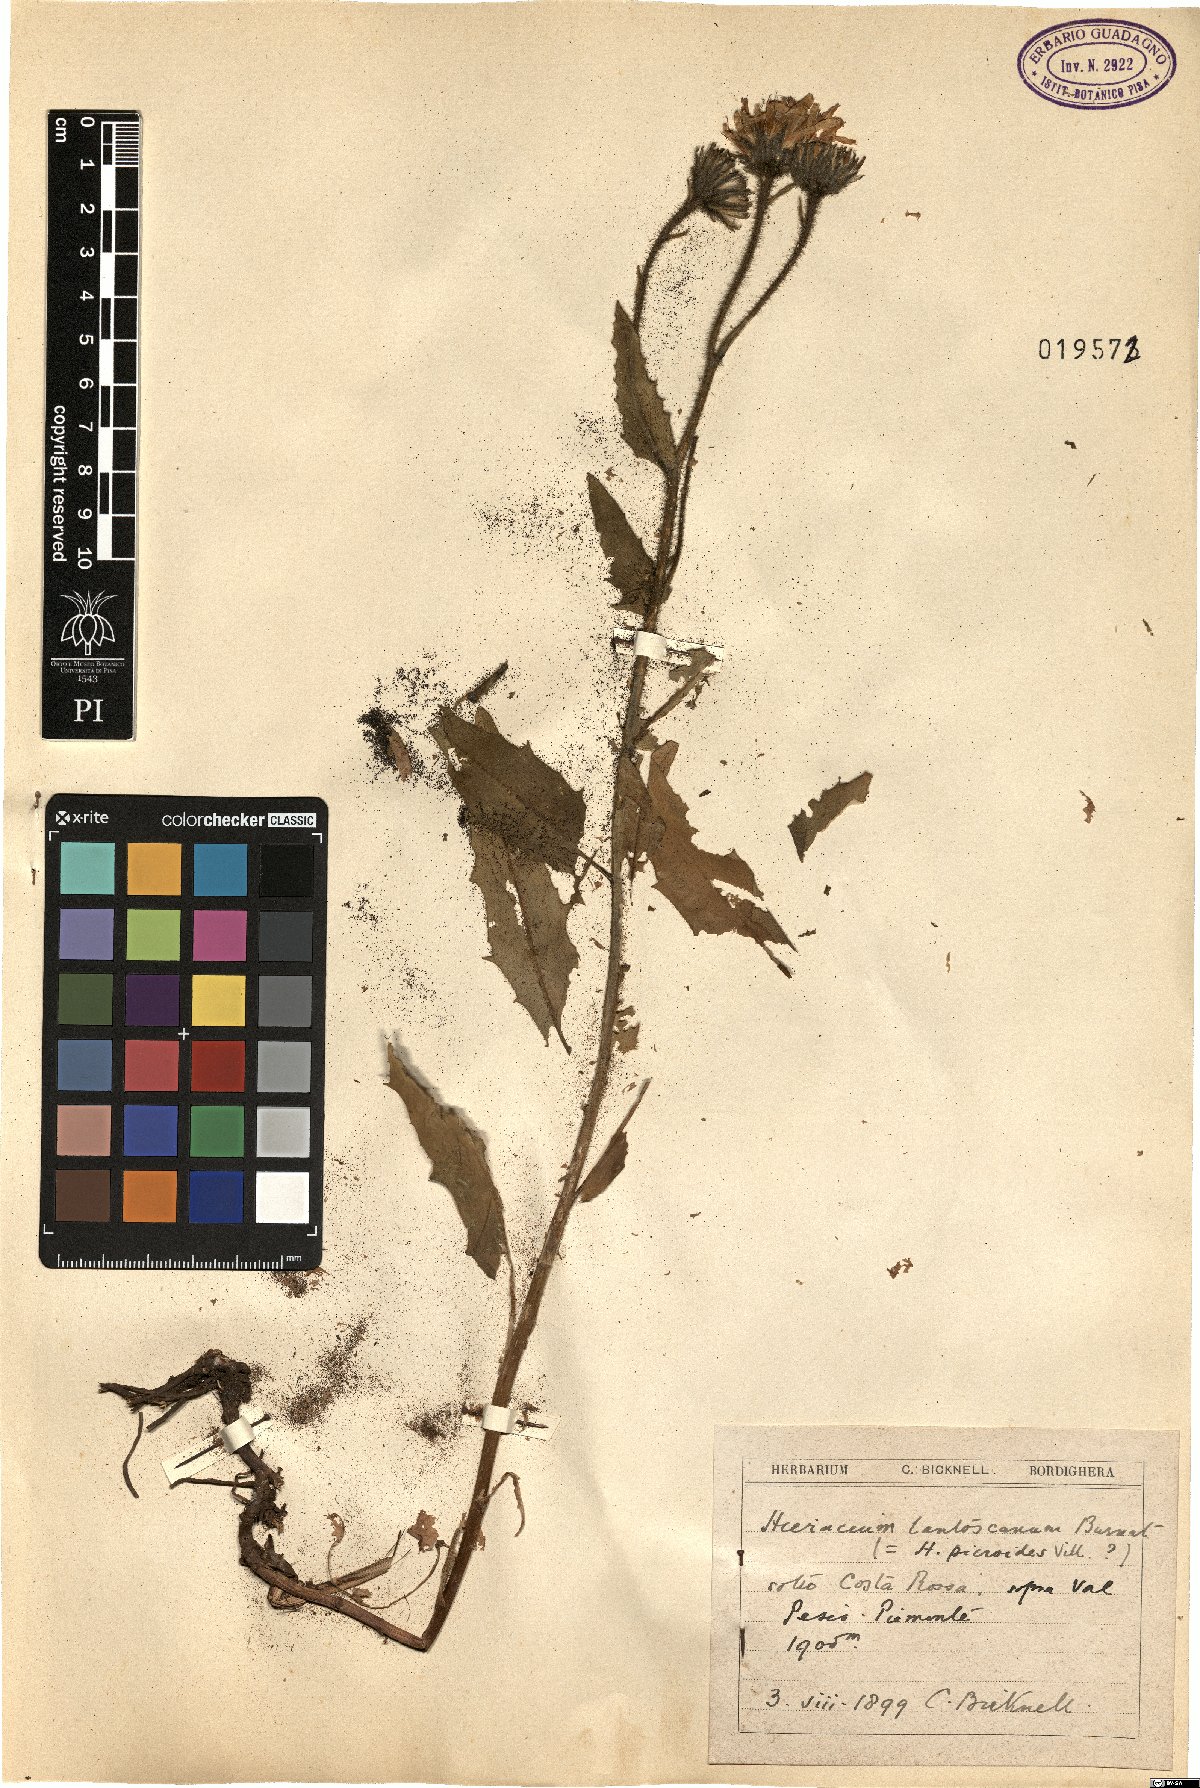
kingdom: Plantae
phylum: Tracheophyta
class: Magnoliopsida
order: Asterales
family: Asteraceae
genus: Hieracium
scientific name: Hieracium picroides
